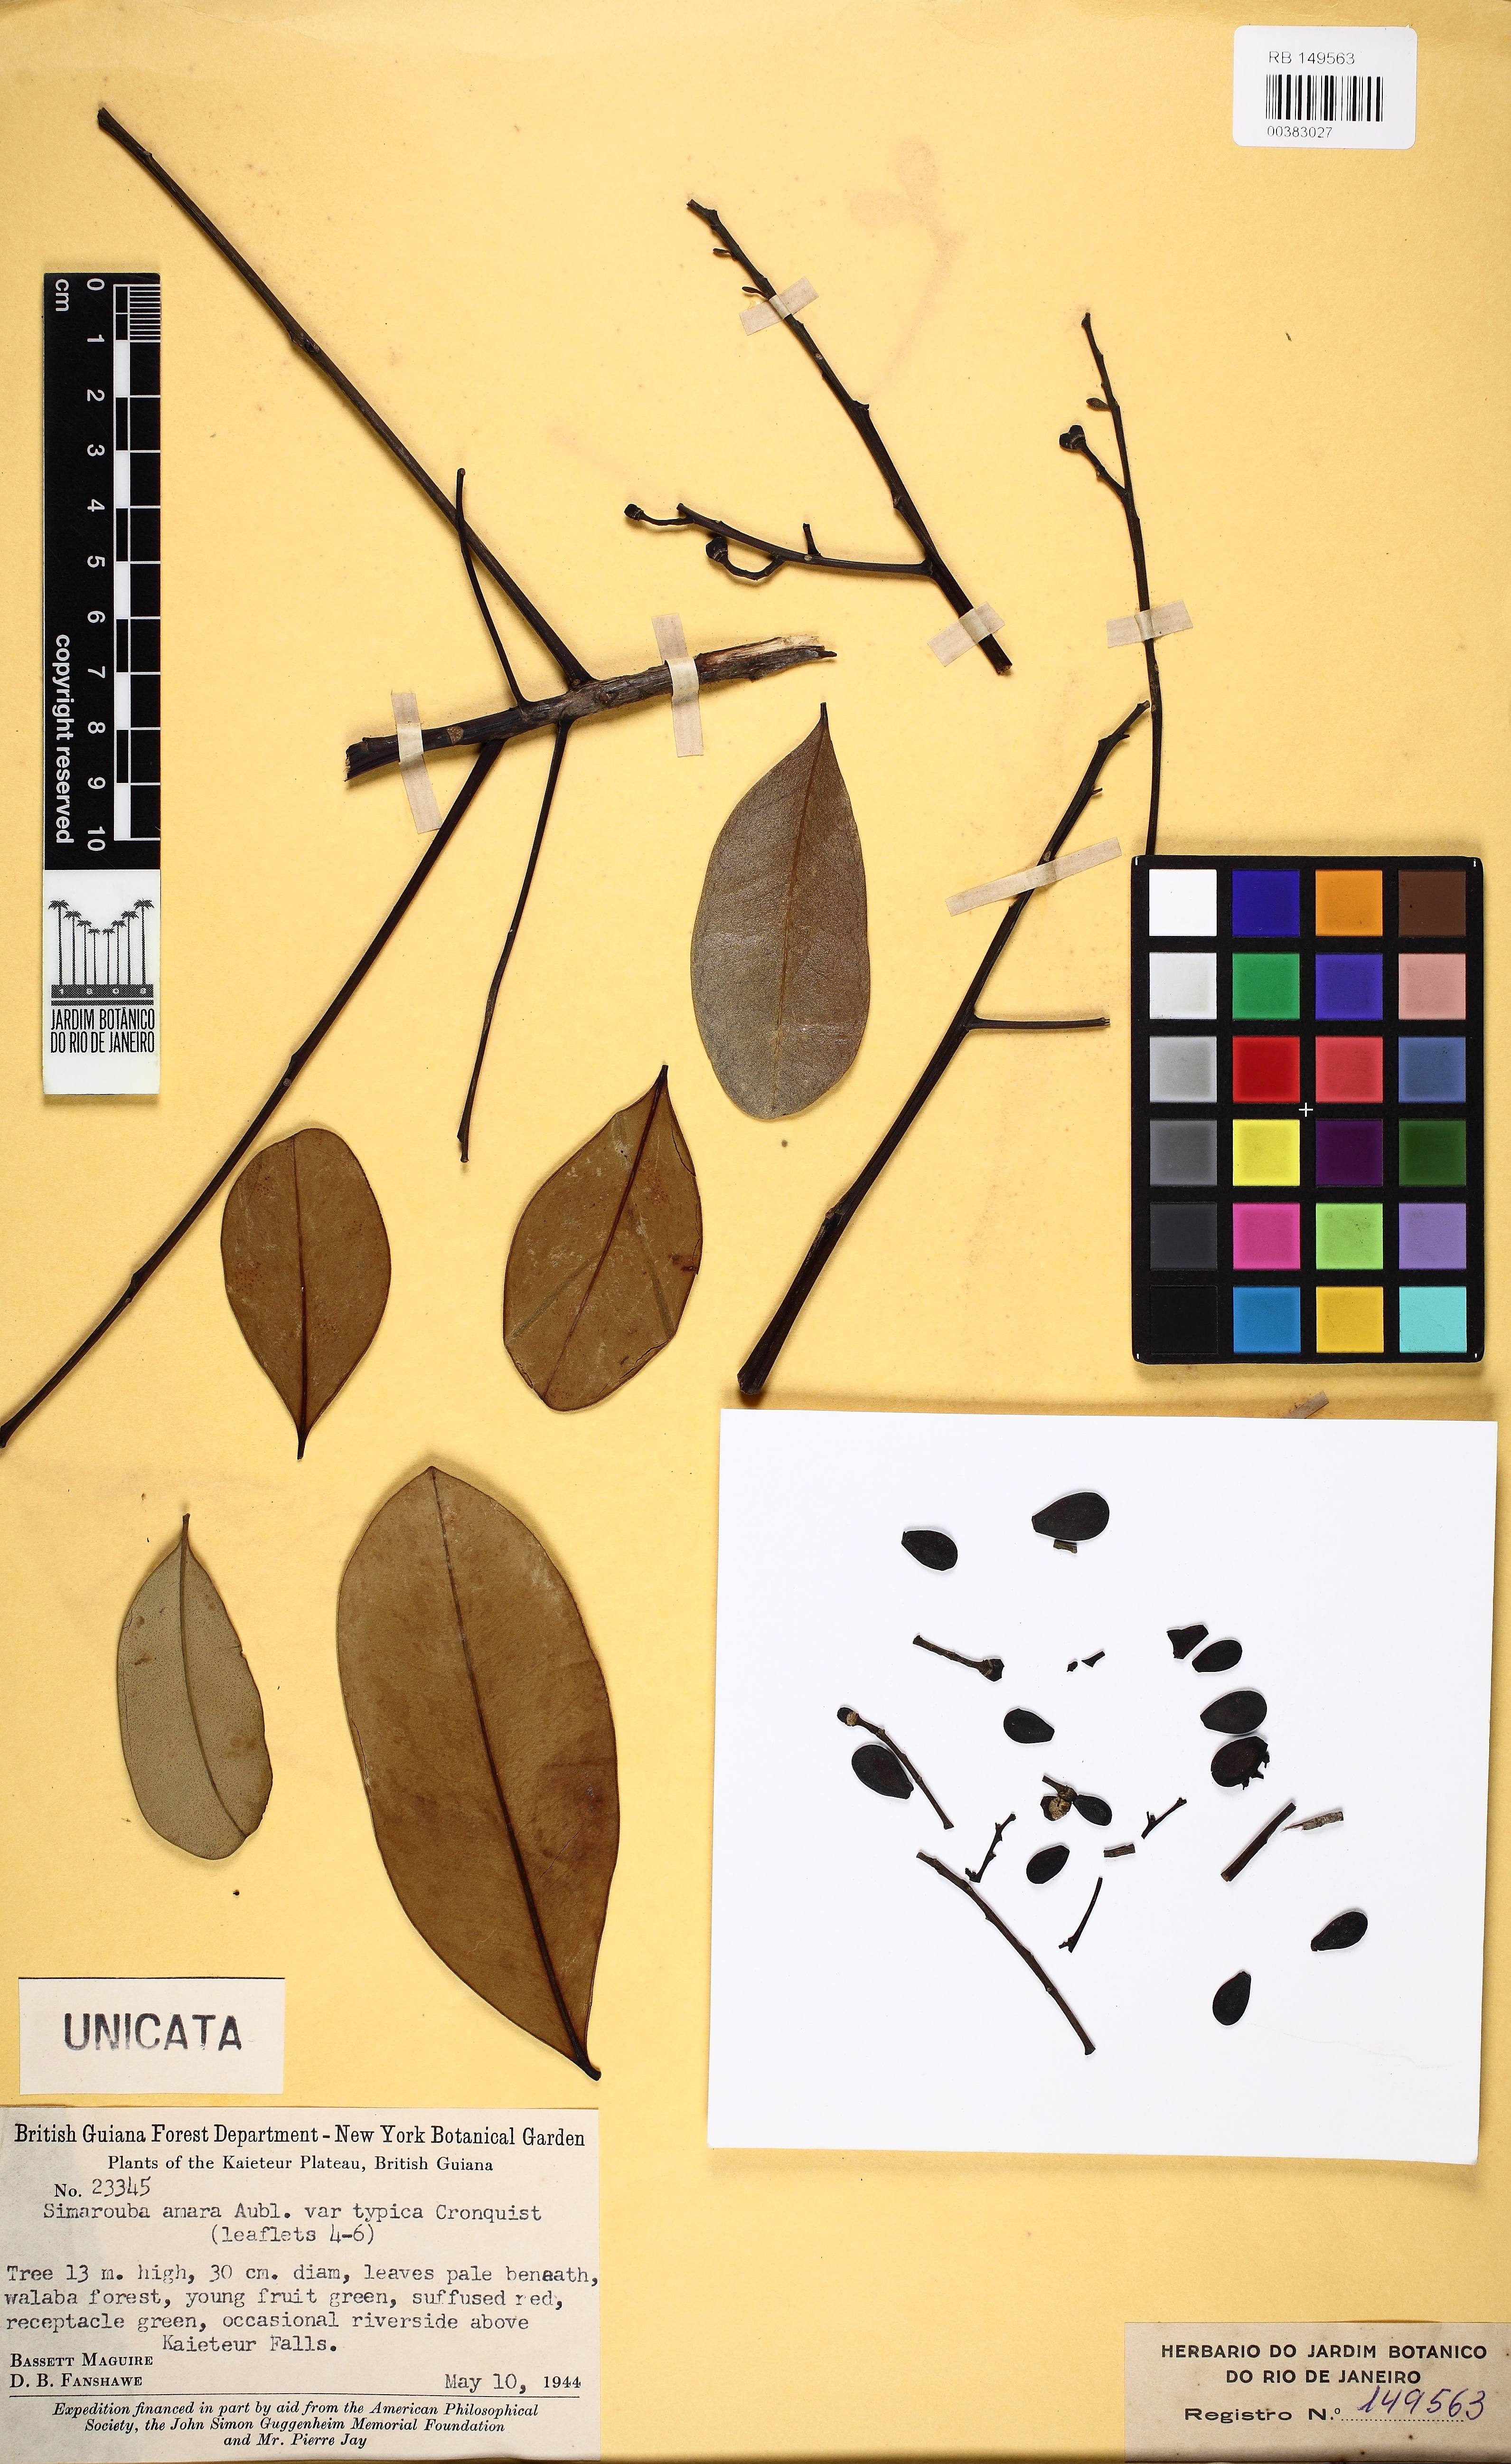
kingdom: Plantae
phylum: Tracheophyta
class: Magnoliopsida
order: Sapindales
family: Simaroubaceae
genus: Simarouba
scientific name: Simarouba amara
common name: Bitterwood
